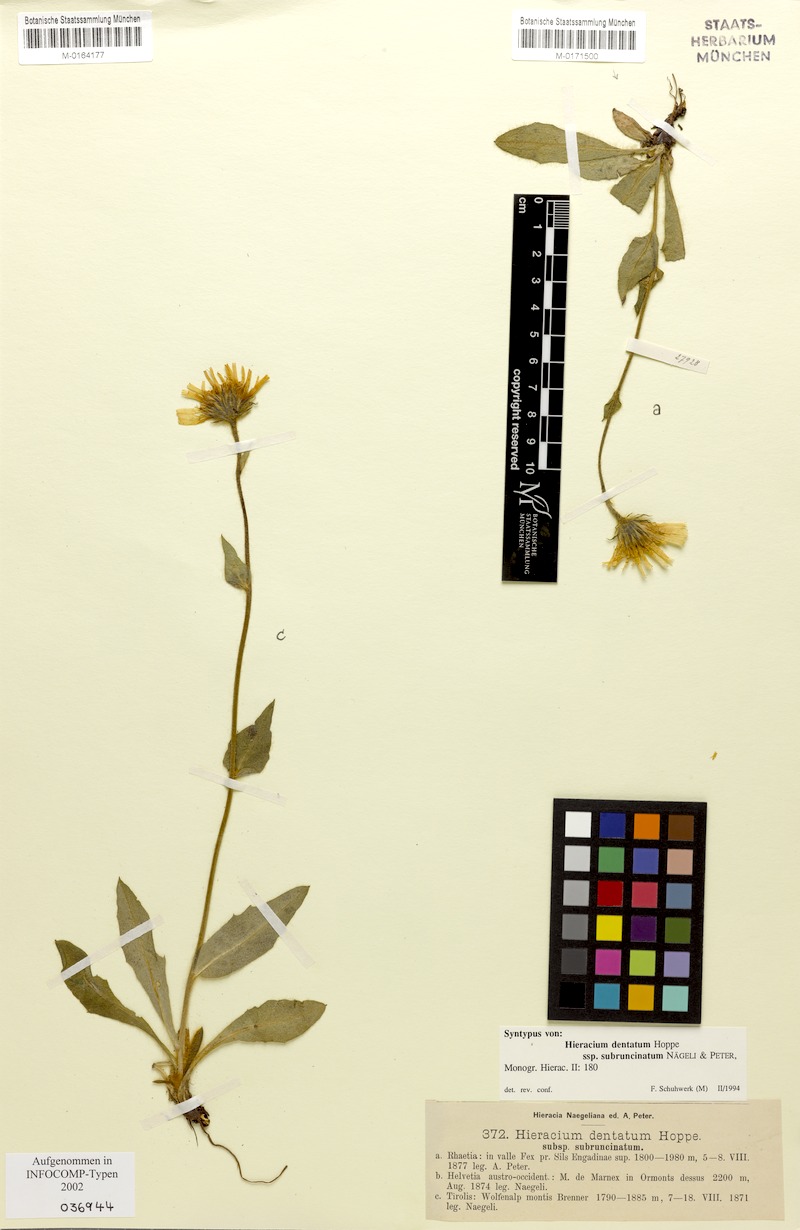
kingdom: Plantae
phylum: Tracheophyta
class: Magnoliopsida
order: Asterales
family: Asteraceae
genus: Hieracium
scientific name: Hieracium dentatum
